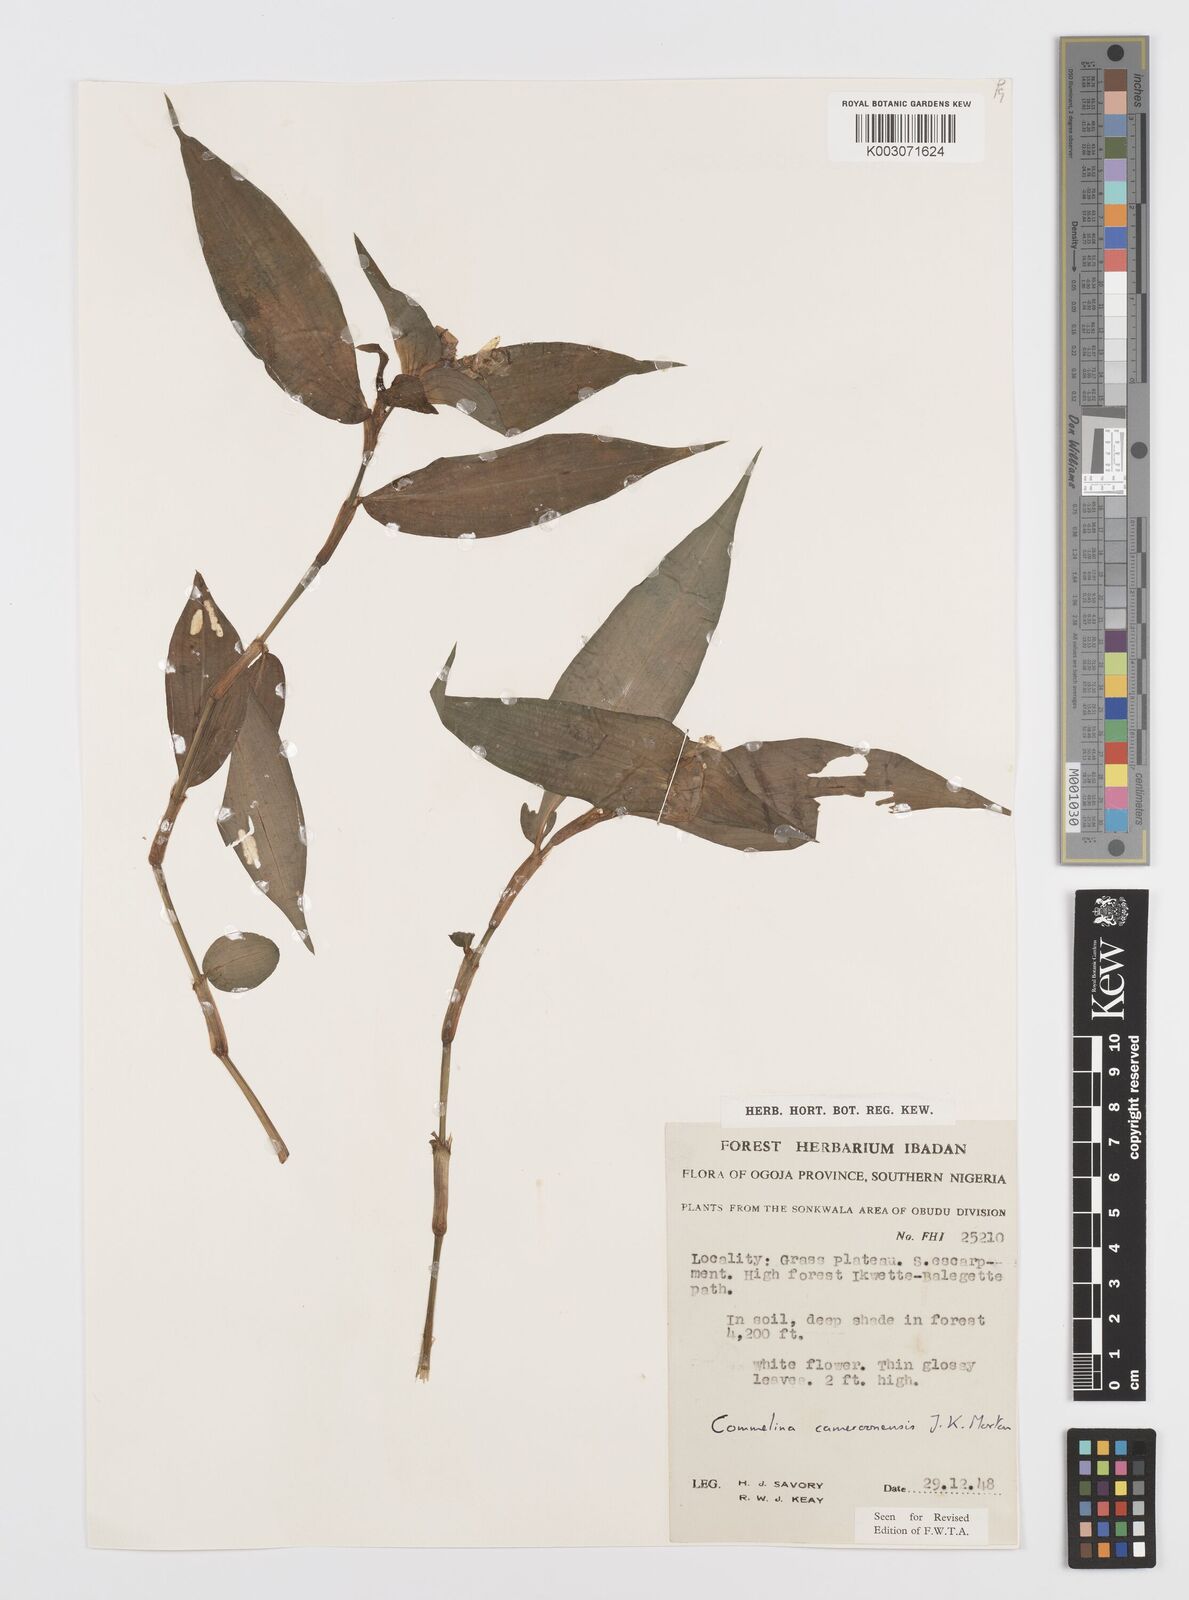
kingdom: Plantae
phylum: Tracheophyta
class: Liliopsida
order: Commelinales
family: Commelinaceae
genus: Commelina
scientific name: Commelina cameroonensis
